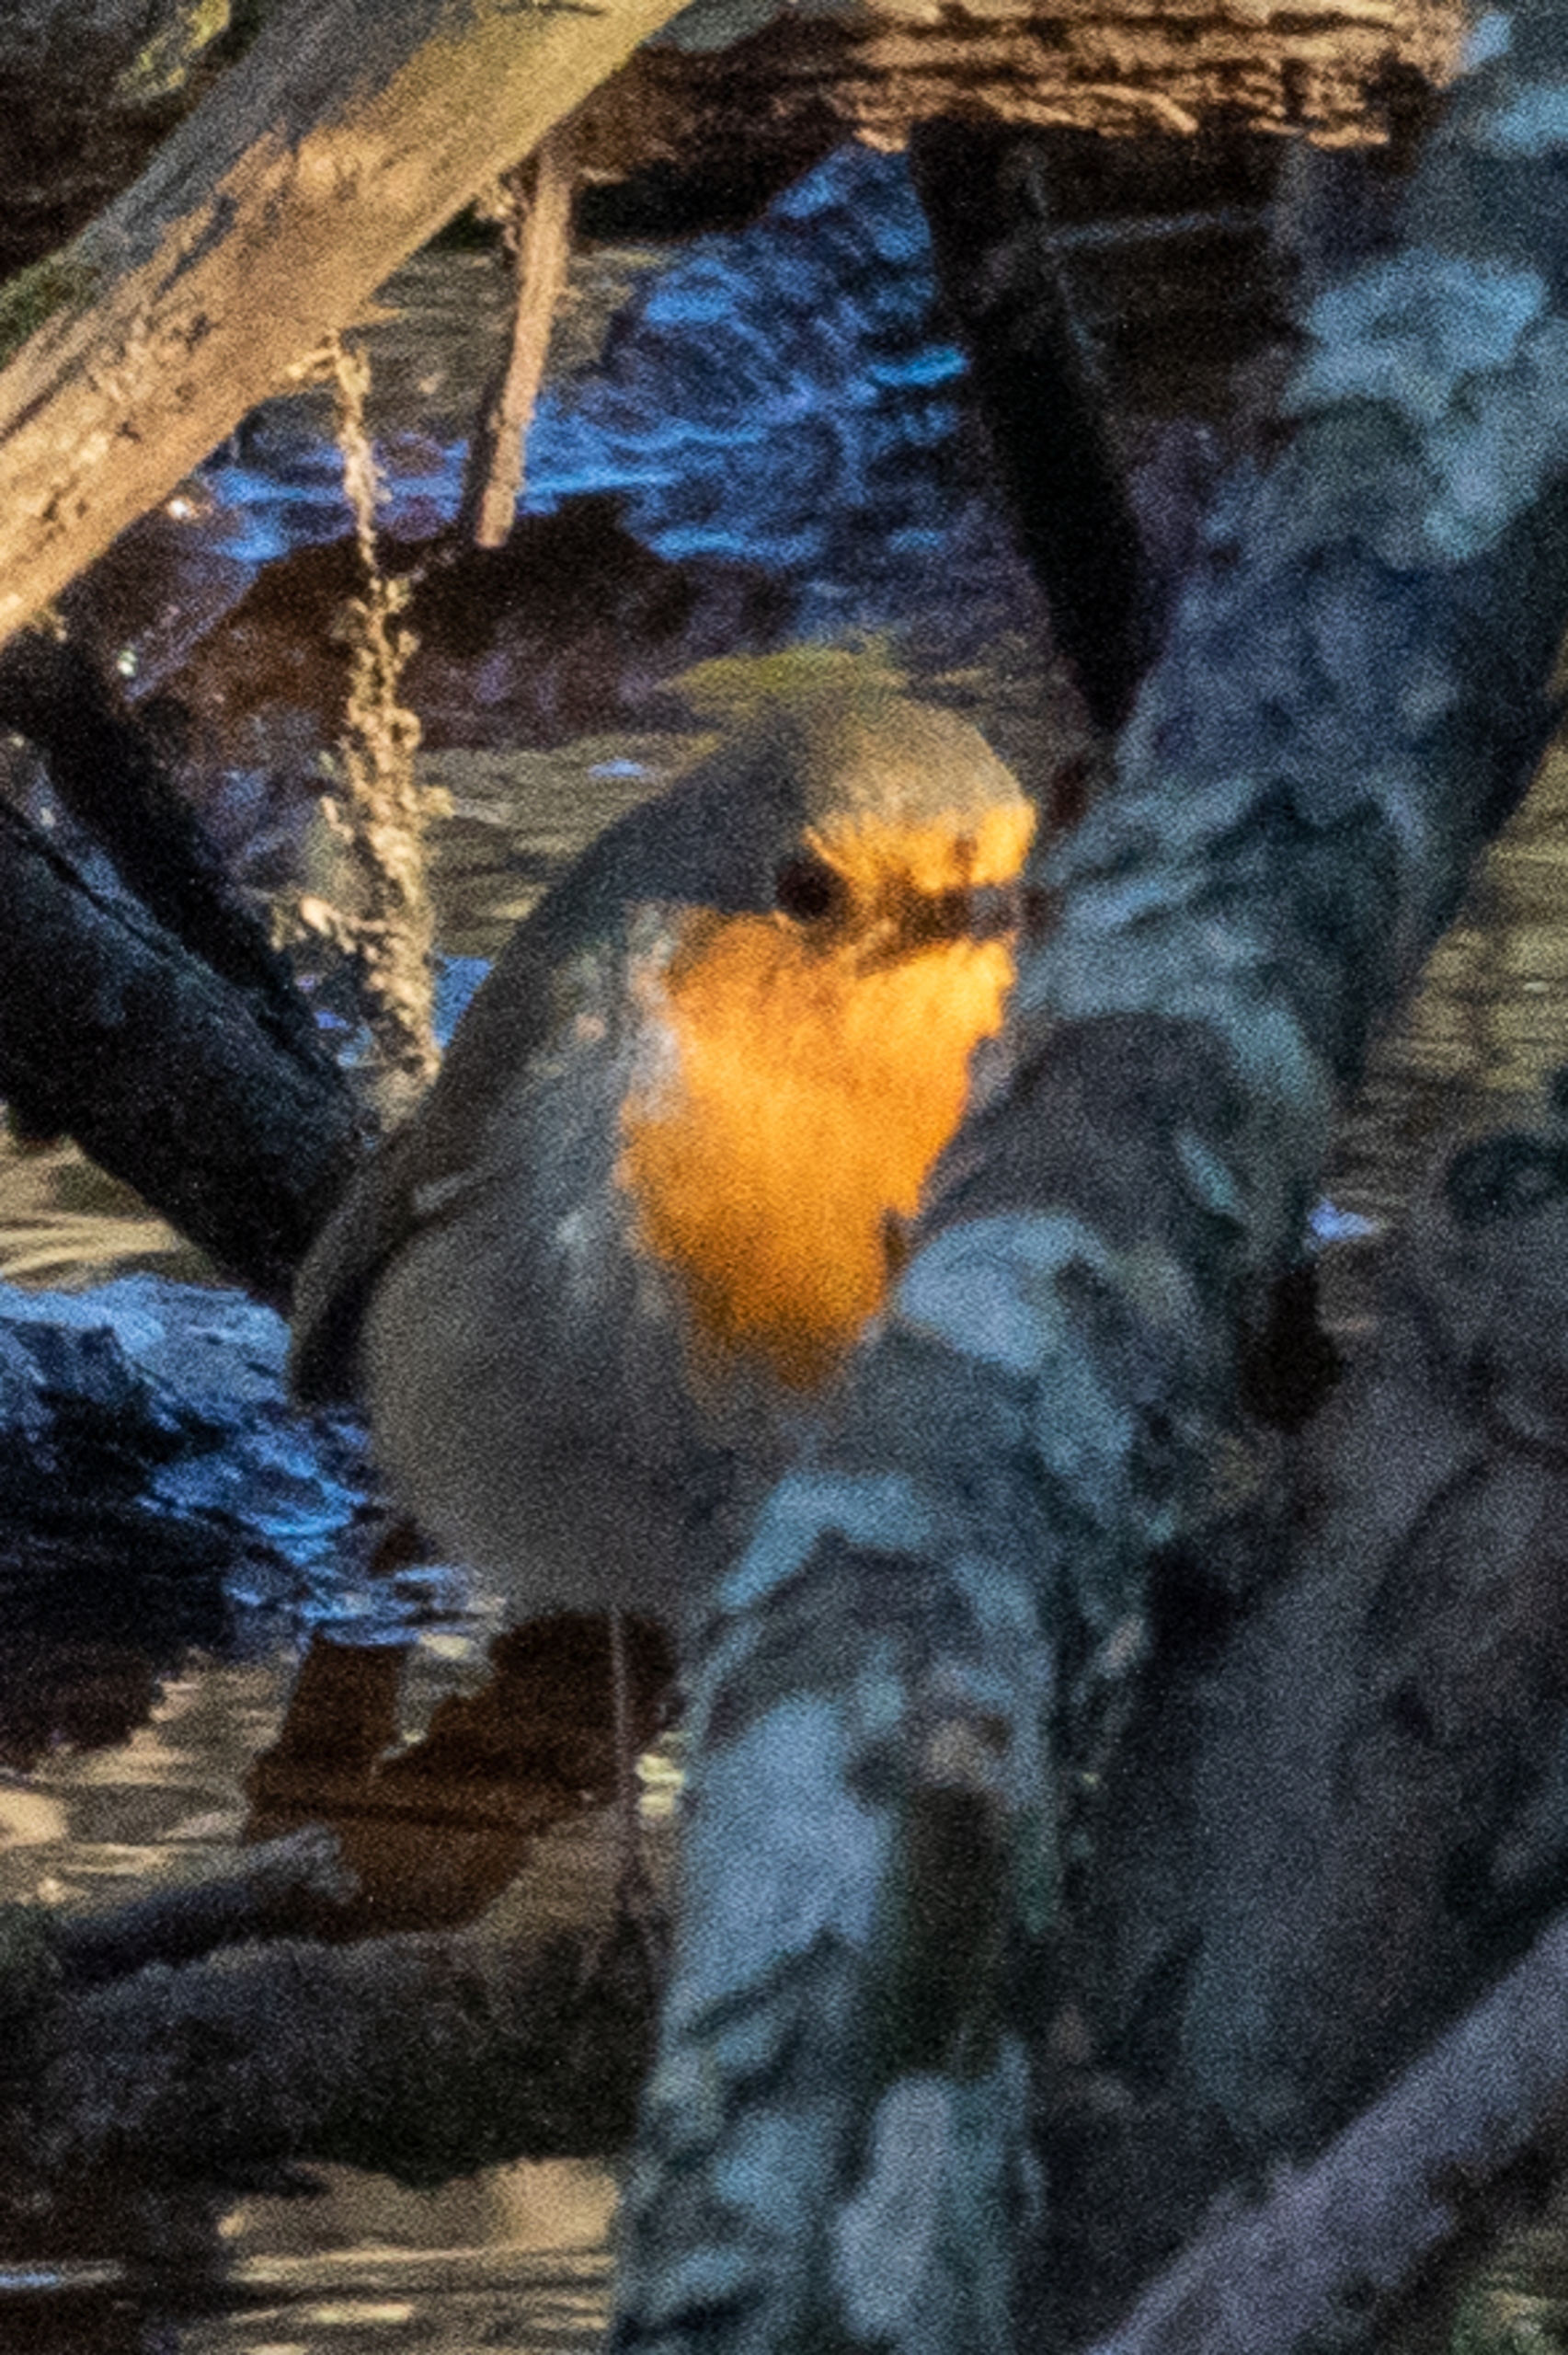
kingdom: Animalia
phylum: Chordata
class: Aves
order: Passeriformes
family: Muscicapidae
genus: Erithacus
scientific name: Erithacus rubecula
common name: Rødhals/rødkælk
